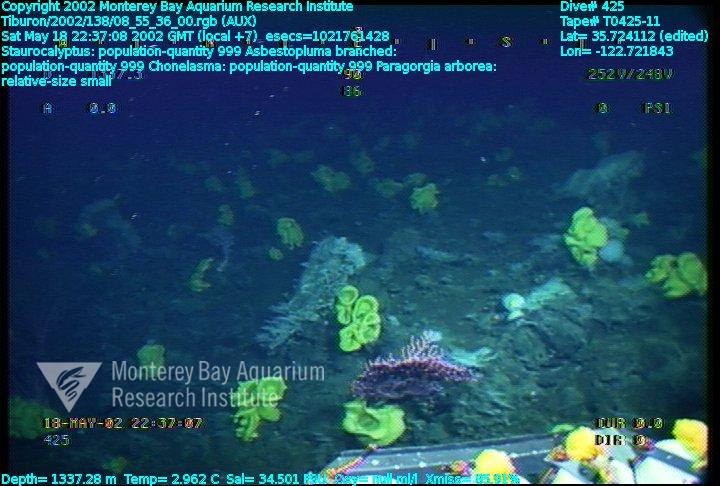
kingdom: Animalia
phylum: Porifera
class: Demospongiae
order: Poecilosclerida
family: Cladorhizidae
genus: Asbestopluma
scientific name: Asbestopluma monticola
